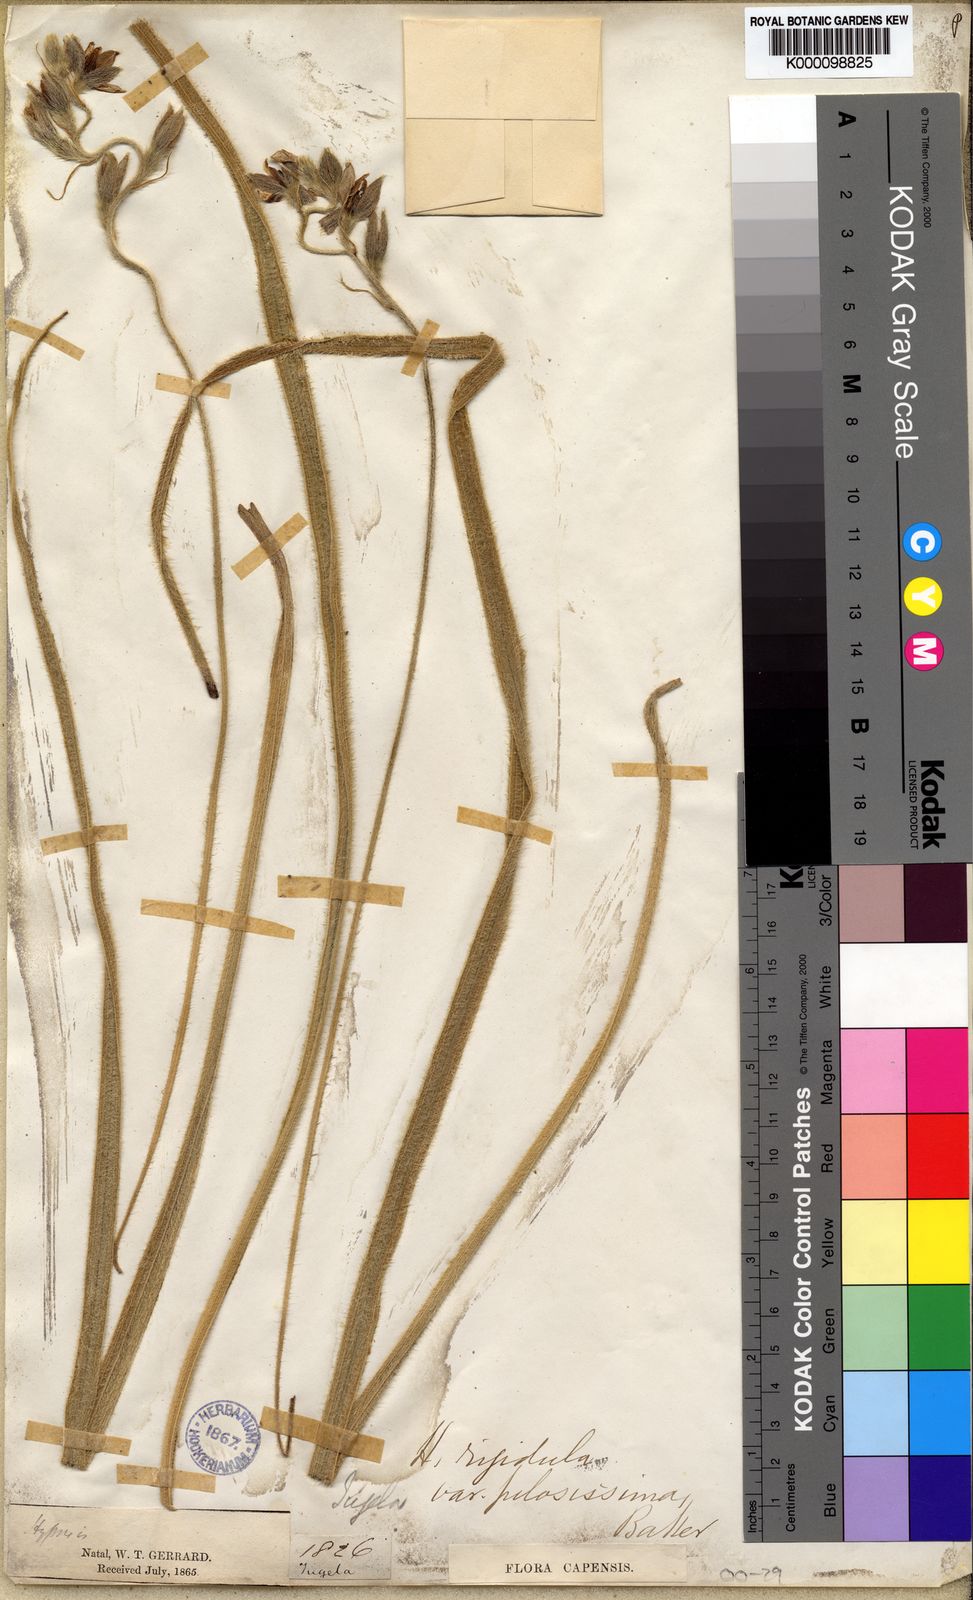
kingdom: Plantae
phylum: Tracheophyta
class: Liliopsida
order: Asparagales
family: Hypoxidaceae
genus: Hypoxis
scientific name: Hypoxis rigidula
